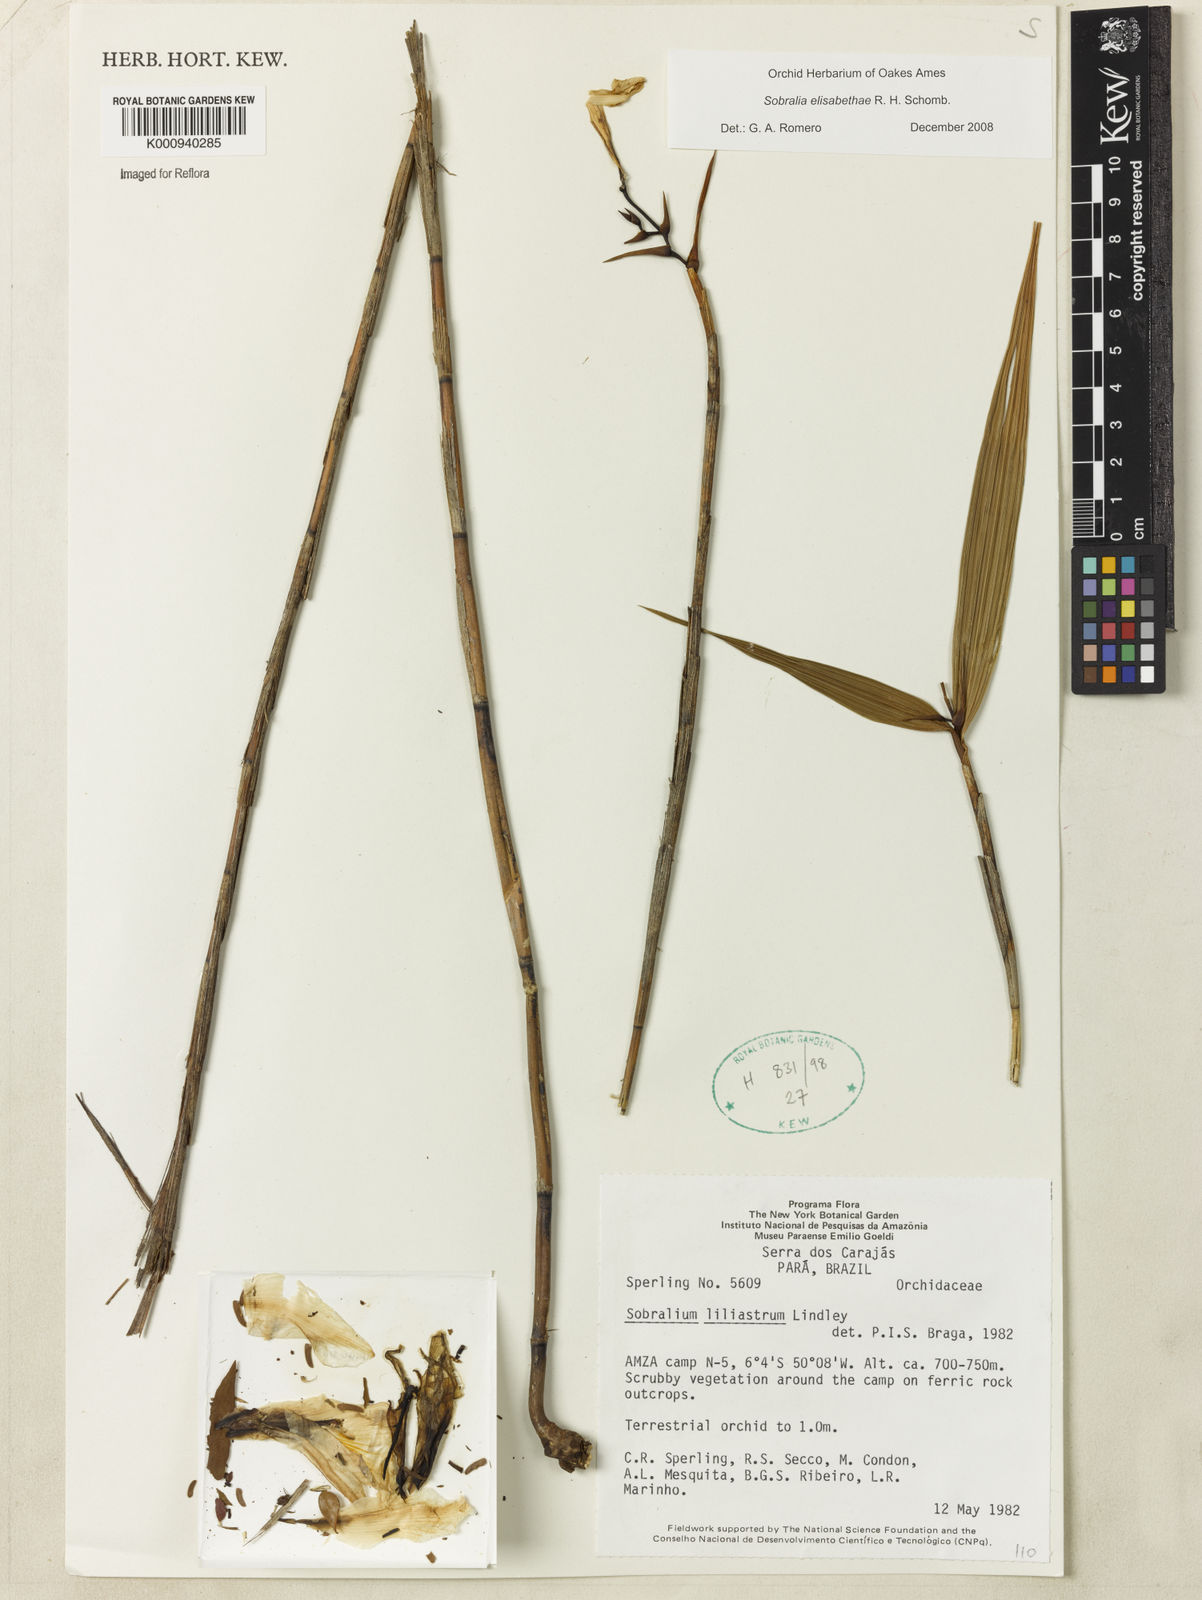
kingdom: Plantae
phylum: Tracheophyta
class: Liliopsida
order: Asparagales
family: Orchidaceae
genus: Sobralia
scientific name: Sobralia elisabethae
